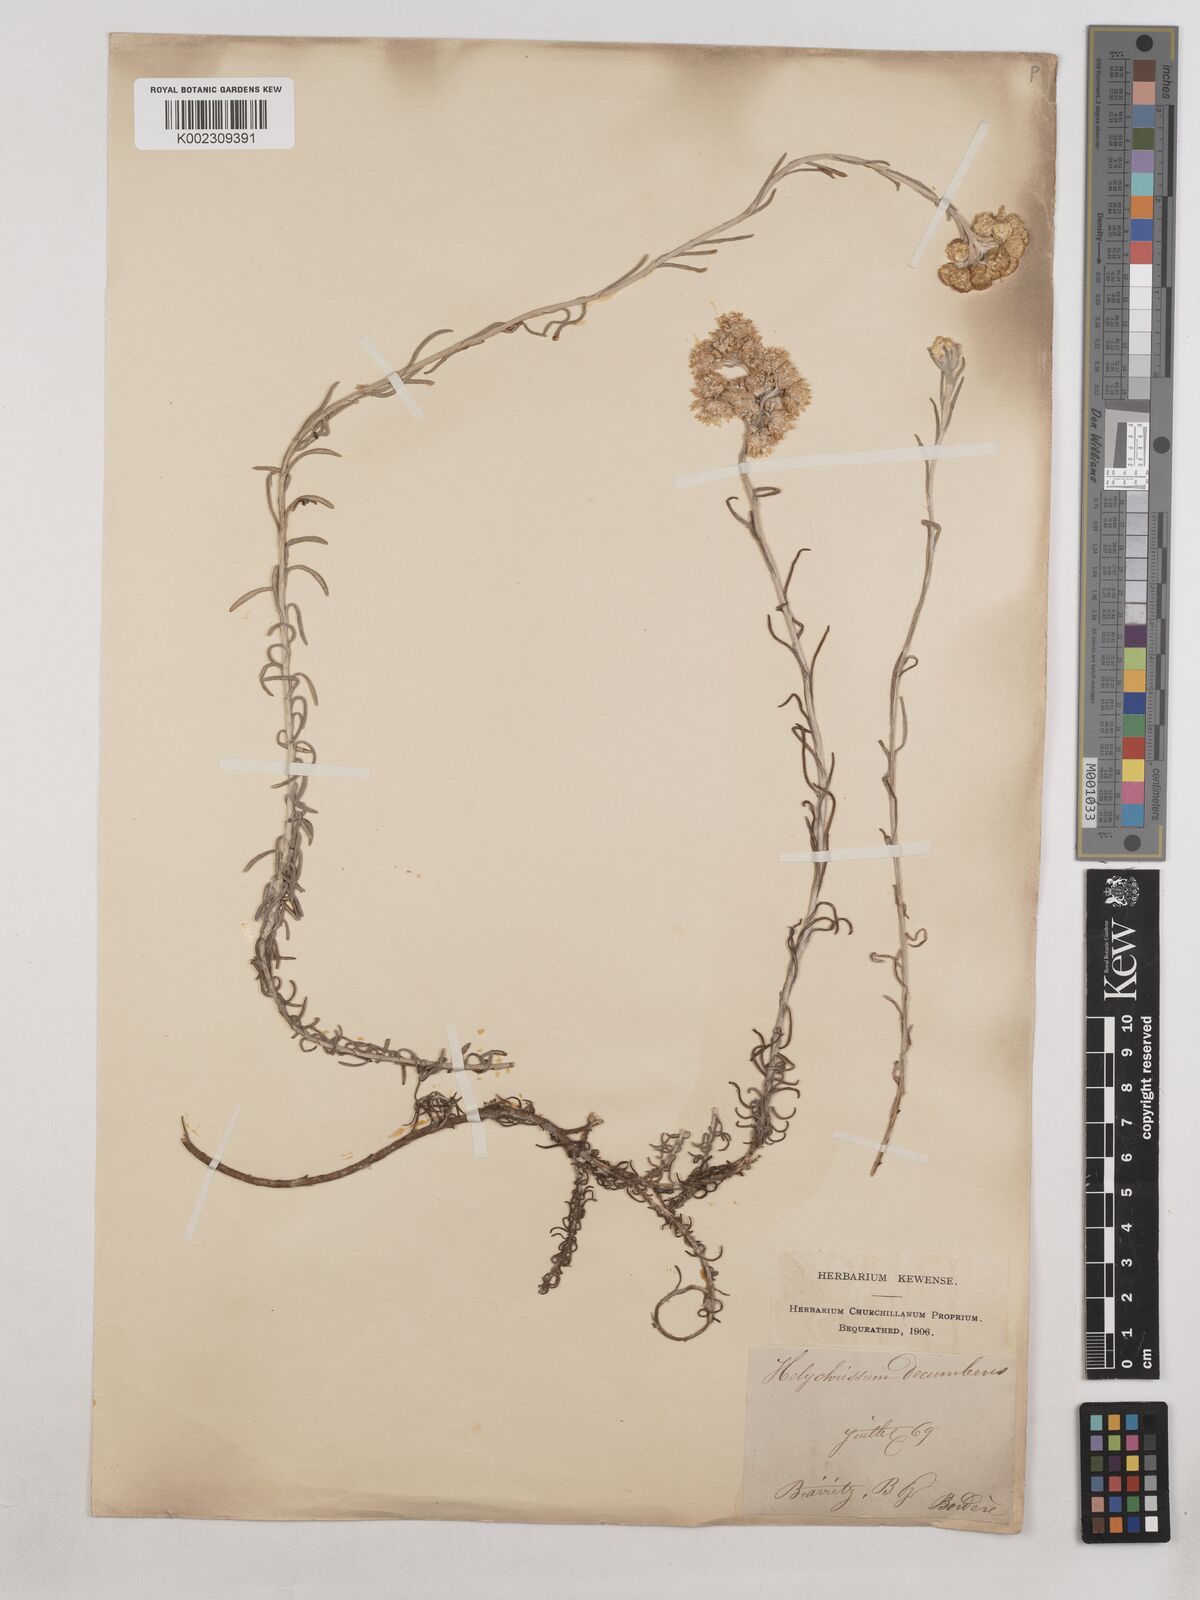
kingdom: Plantae
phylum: Tracheophyta
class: Magnoliopsida
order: Asterales
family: Asteraceae
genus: Helichrysum
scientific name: Helichrysum stoechas
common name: Goldilocks
